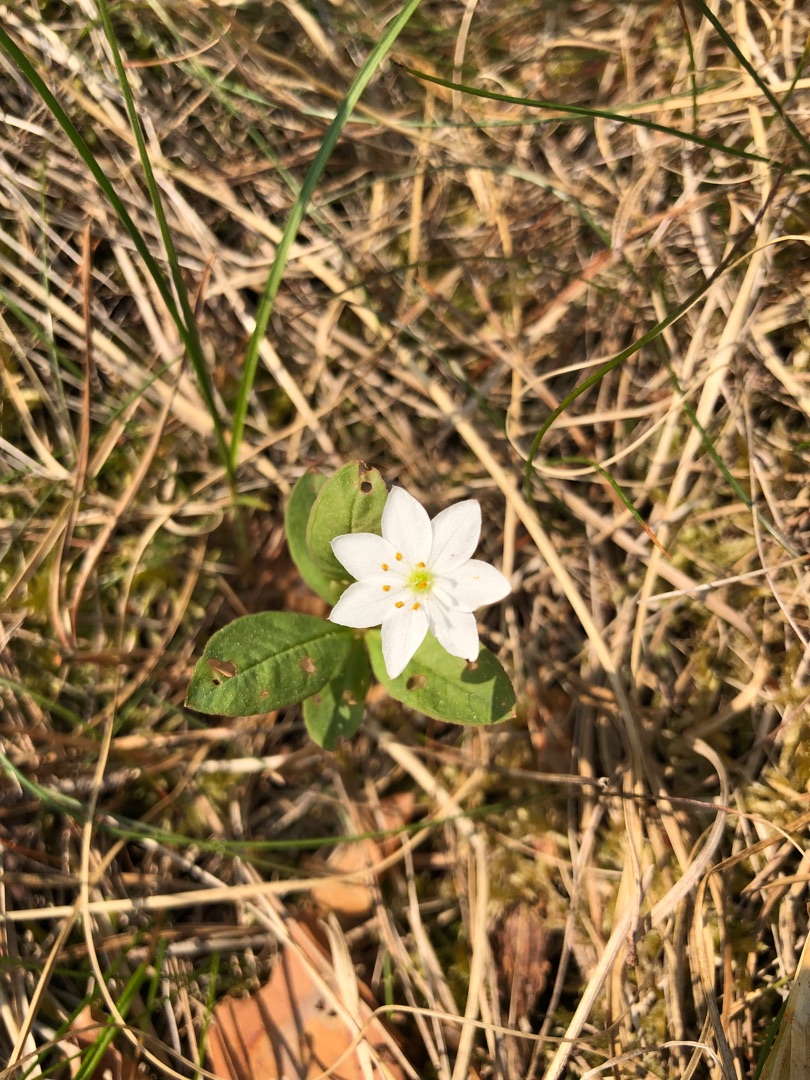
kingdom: Plantae
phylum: Tracheophyta
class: Magnoliopsida
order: Ericales
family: Primulaceae
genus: Lysimachia
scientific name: Lysimachia europaea
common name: Skovstjerne
